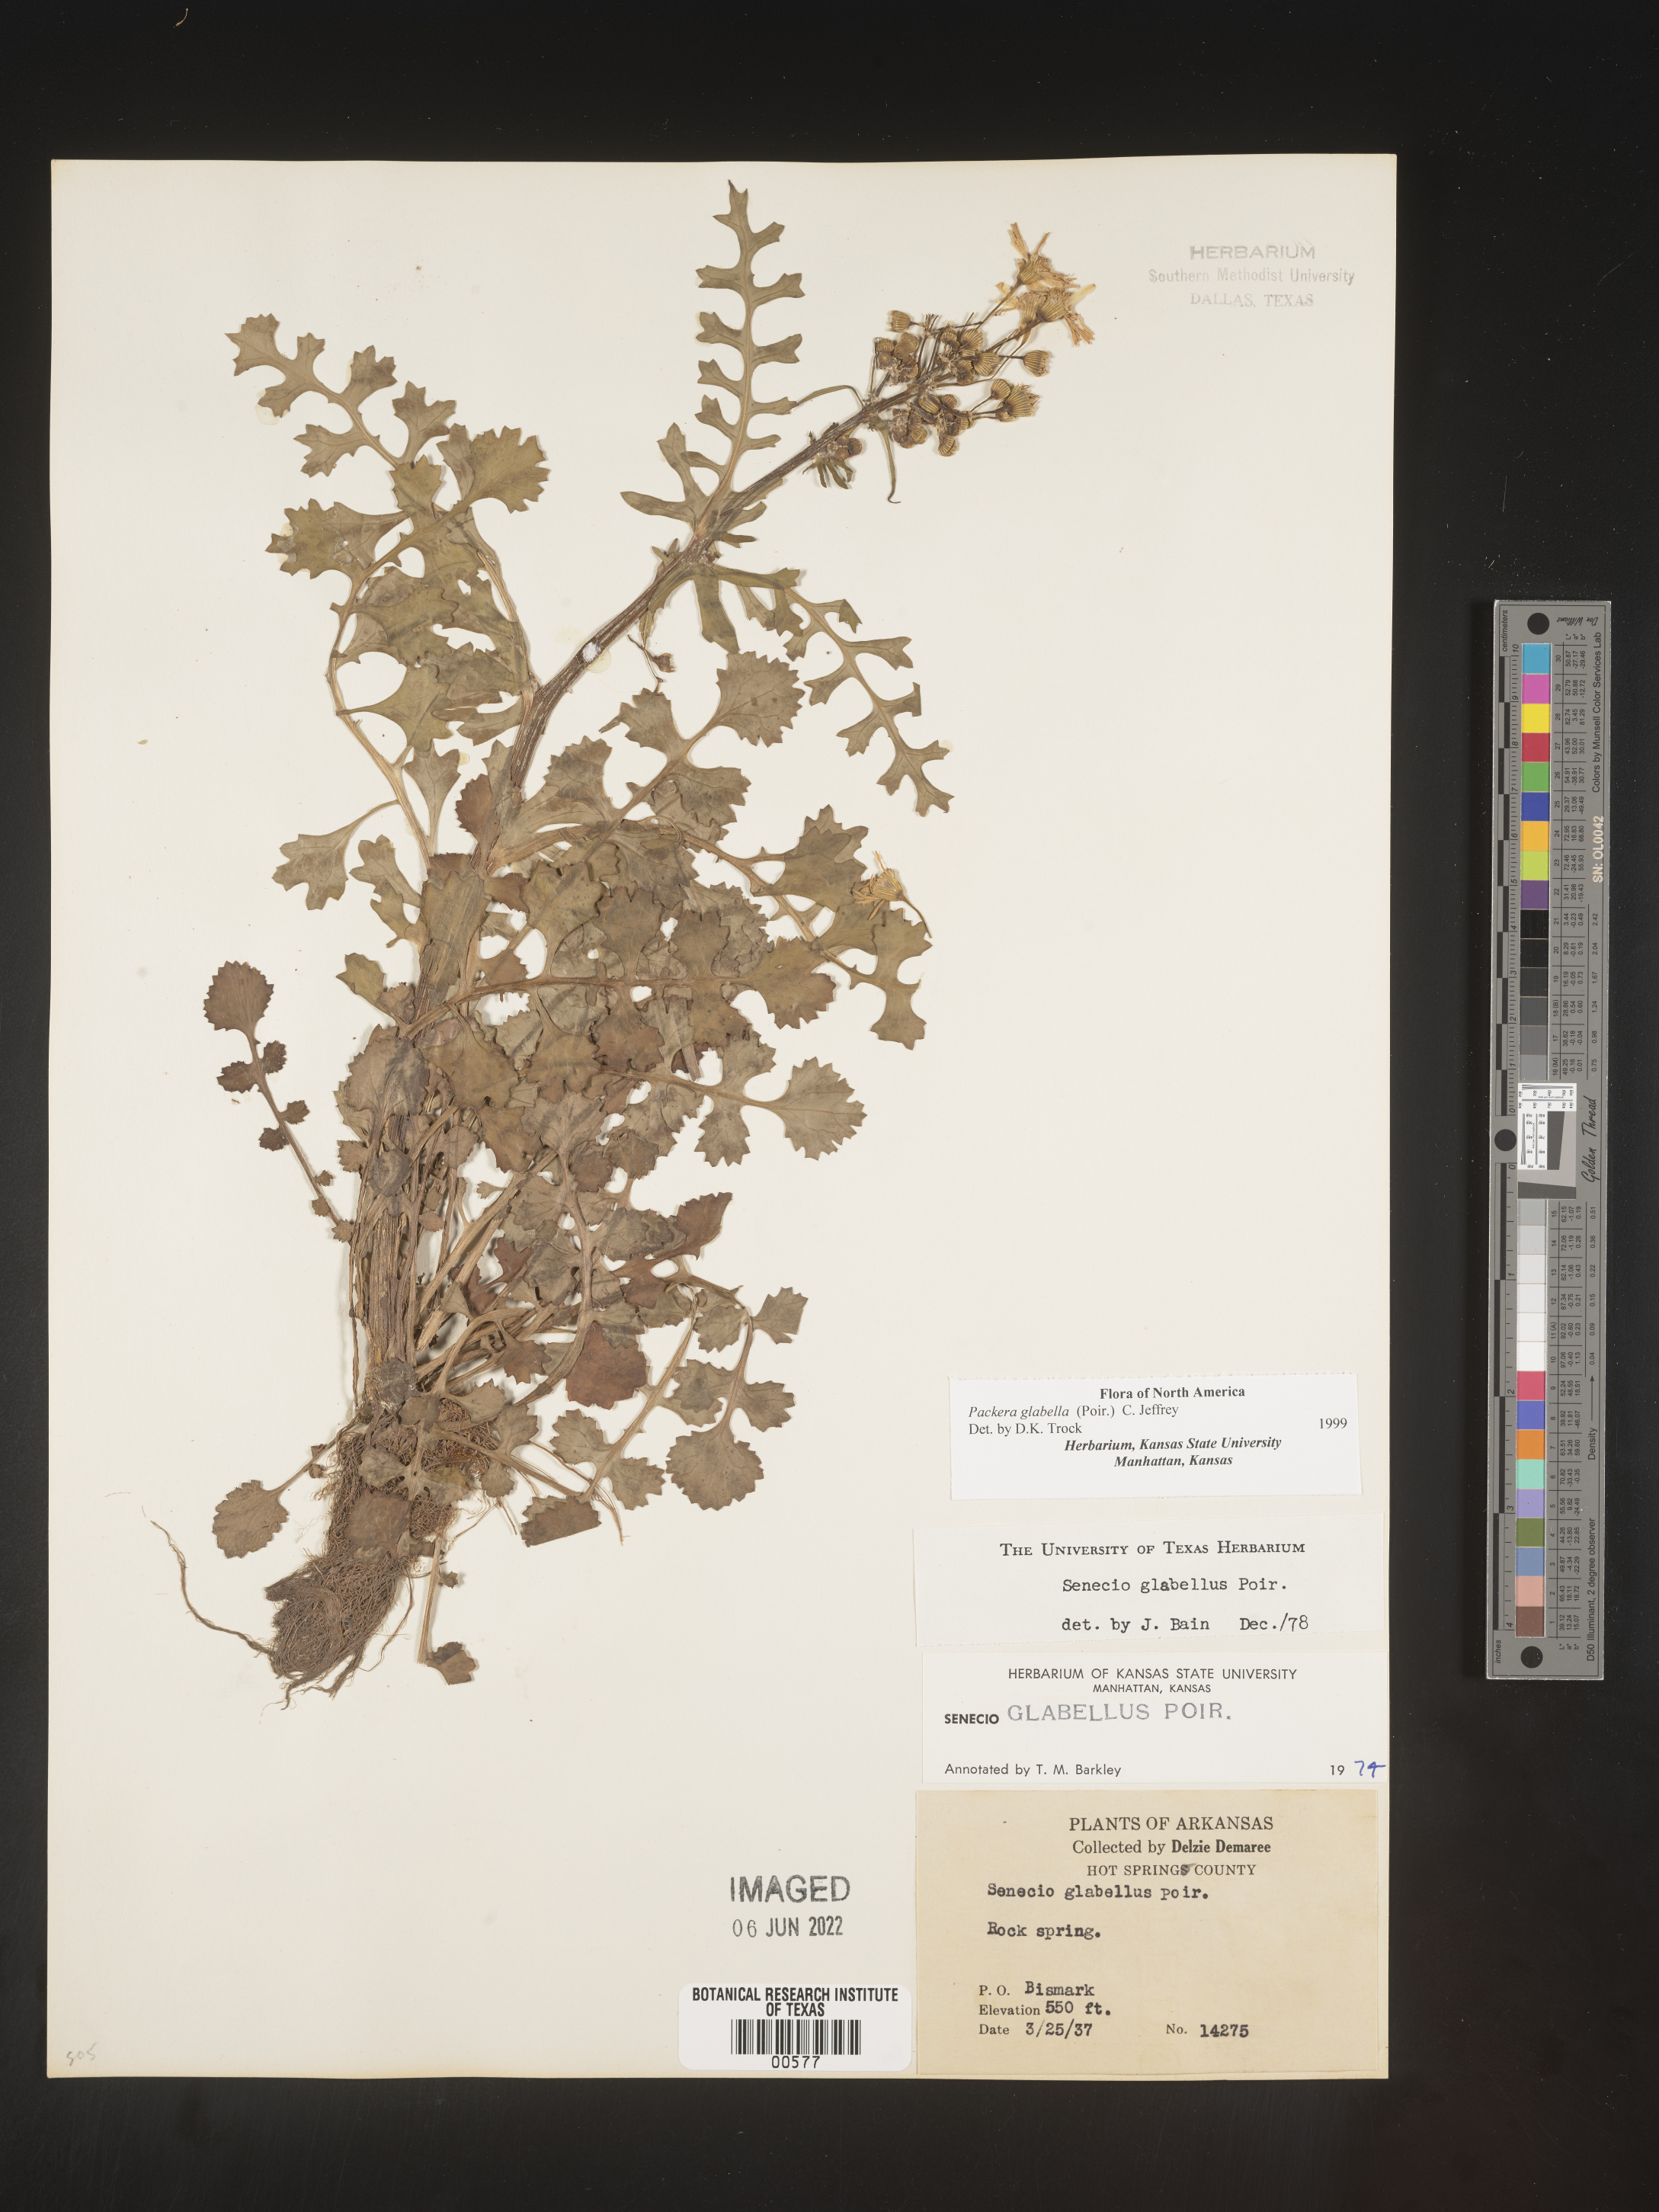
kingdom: Plantae
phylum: Tracheophyta
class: Magnoliopsida
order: Asterales
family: Asteraceae
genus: Packera
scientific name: Packera glabella
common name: Butterweed
